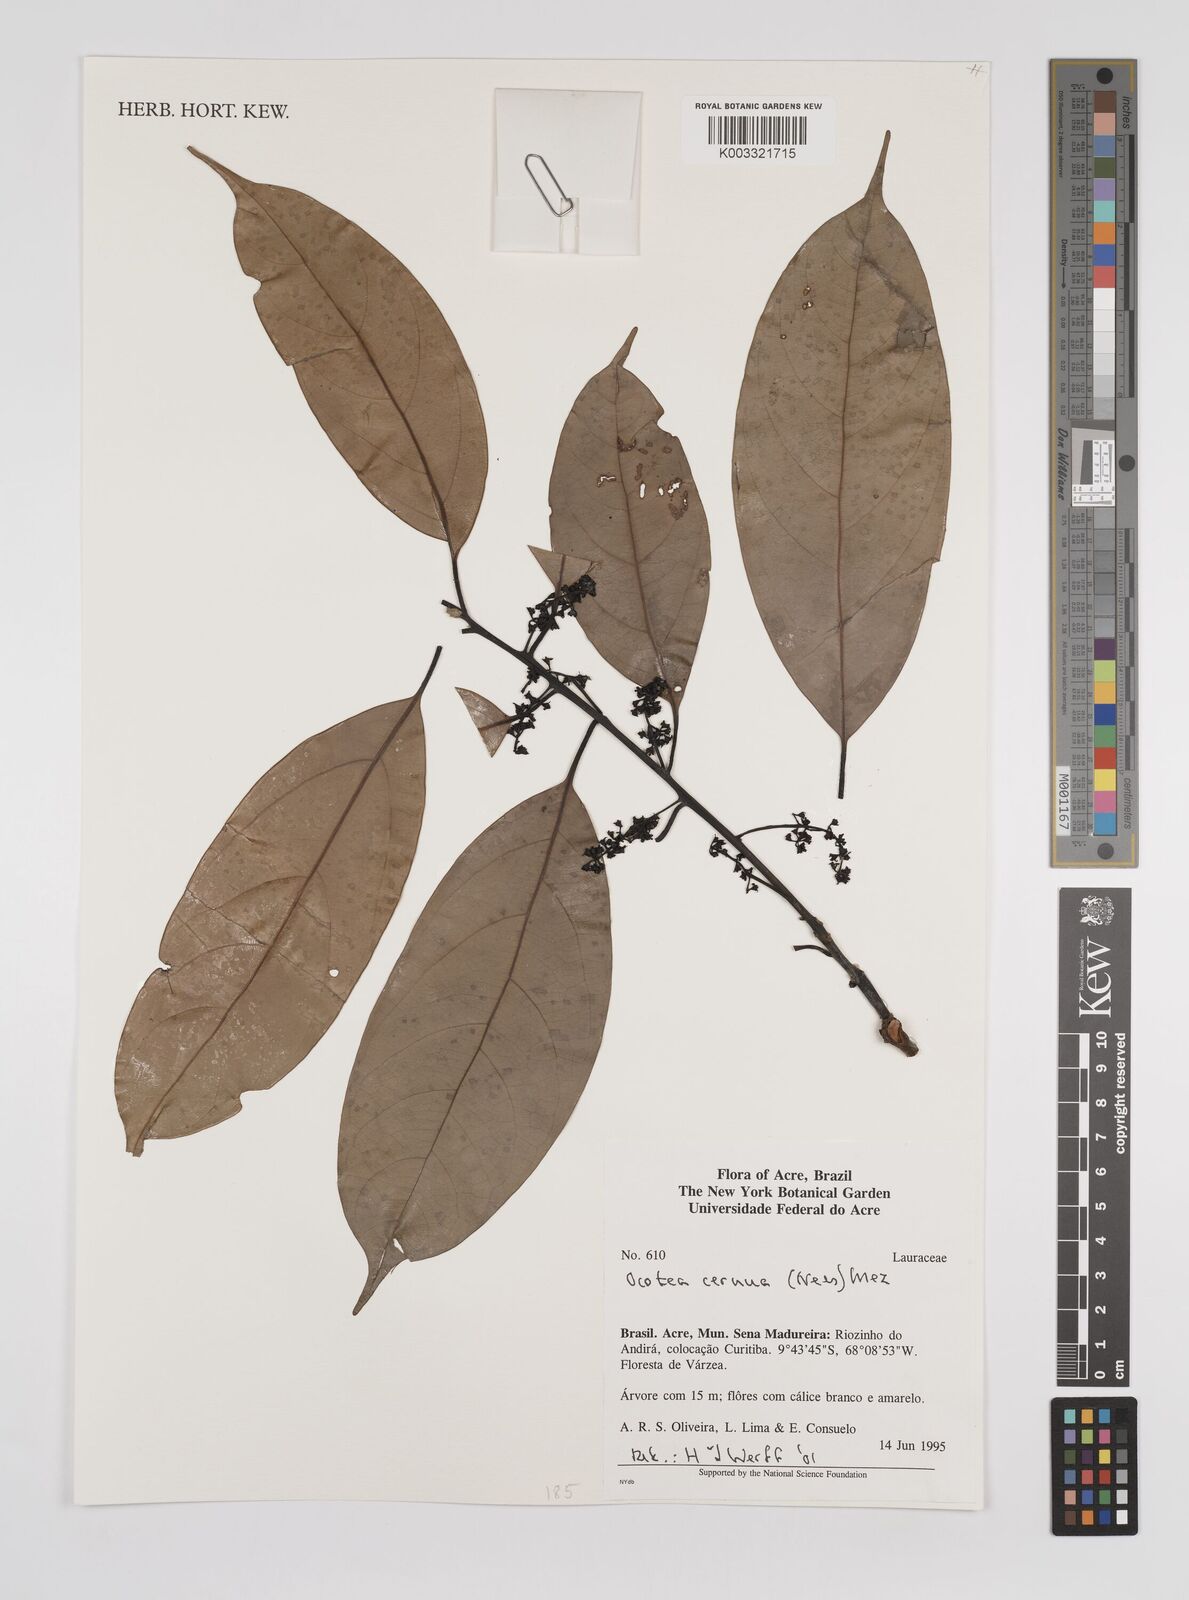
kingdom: Plantae
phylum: Tracheophyta
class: Magnoliopsida
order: Laurales
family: Lauraceae
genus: Ocotea
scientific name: Ocotea leptobotra
